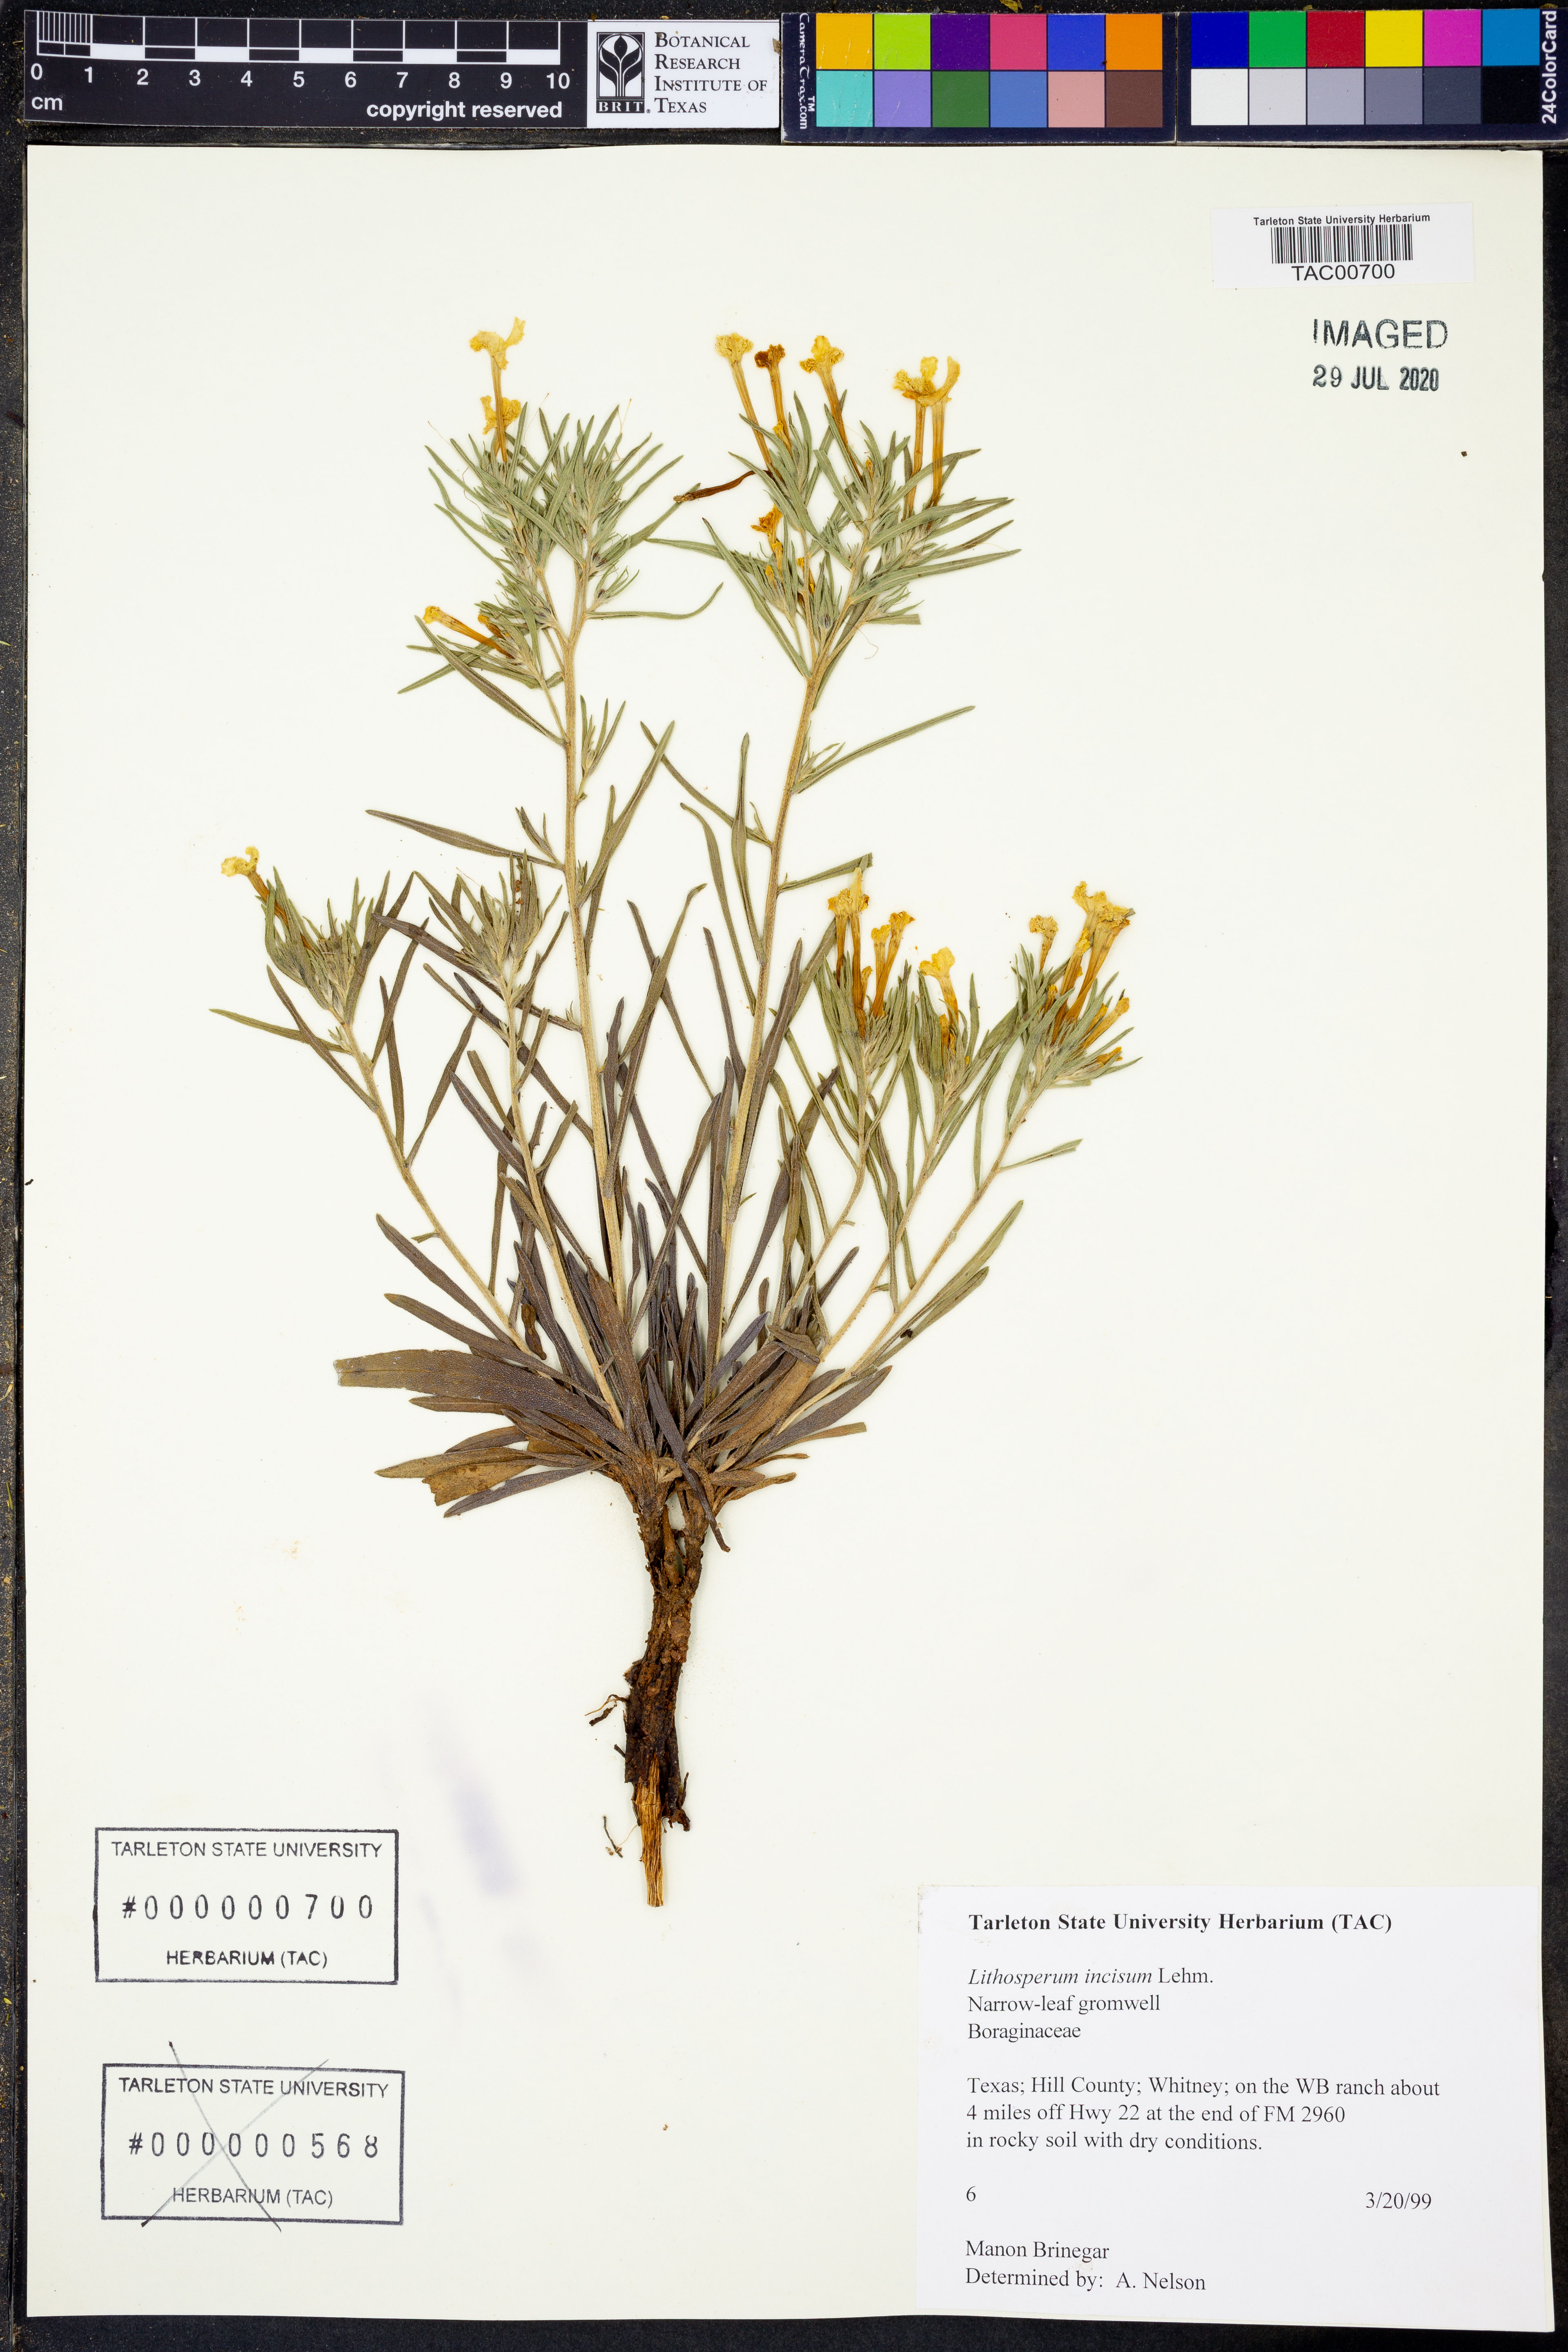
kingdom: Plantae
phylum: Tracheophyta
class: Magnoliopsida
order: Boraginales
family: Boraginaceae
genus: Lithospermum
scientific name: Lithospermum incisum
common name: Fringed gromwell
